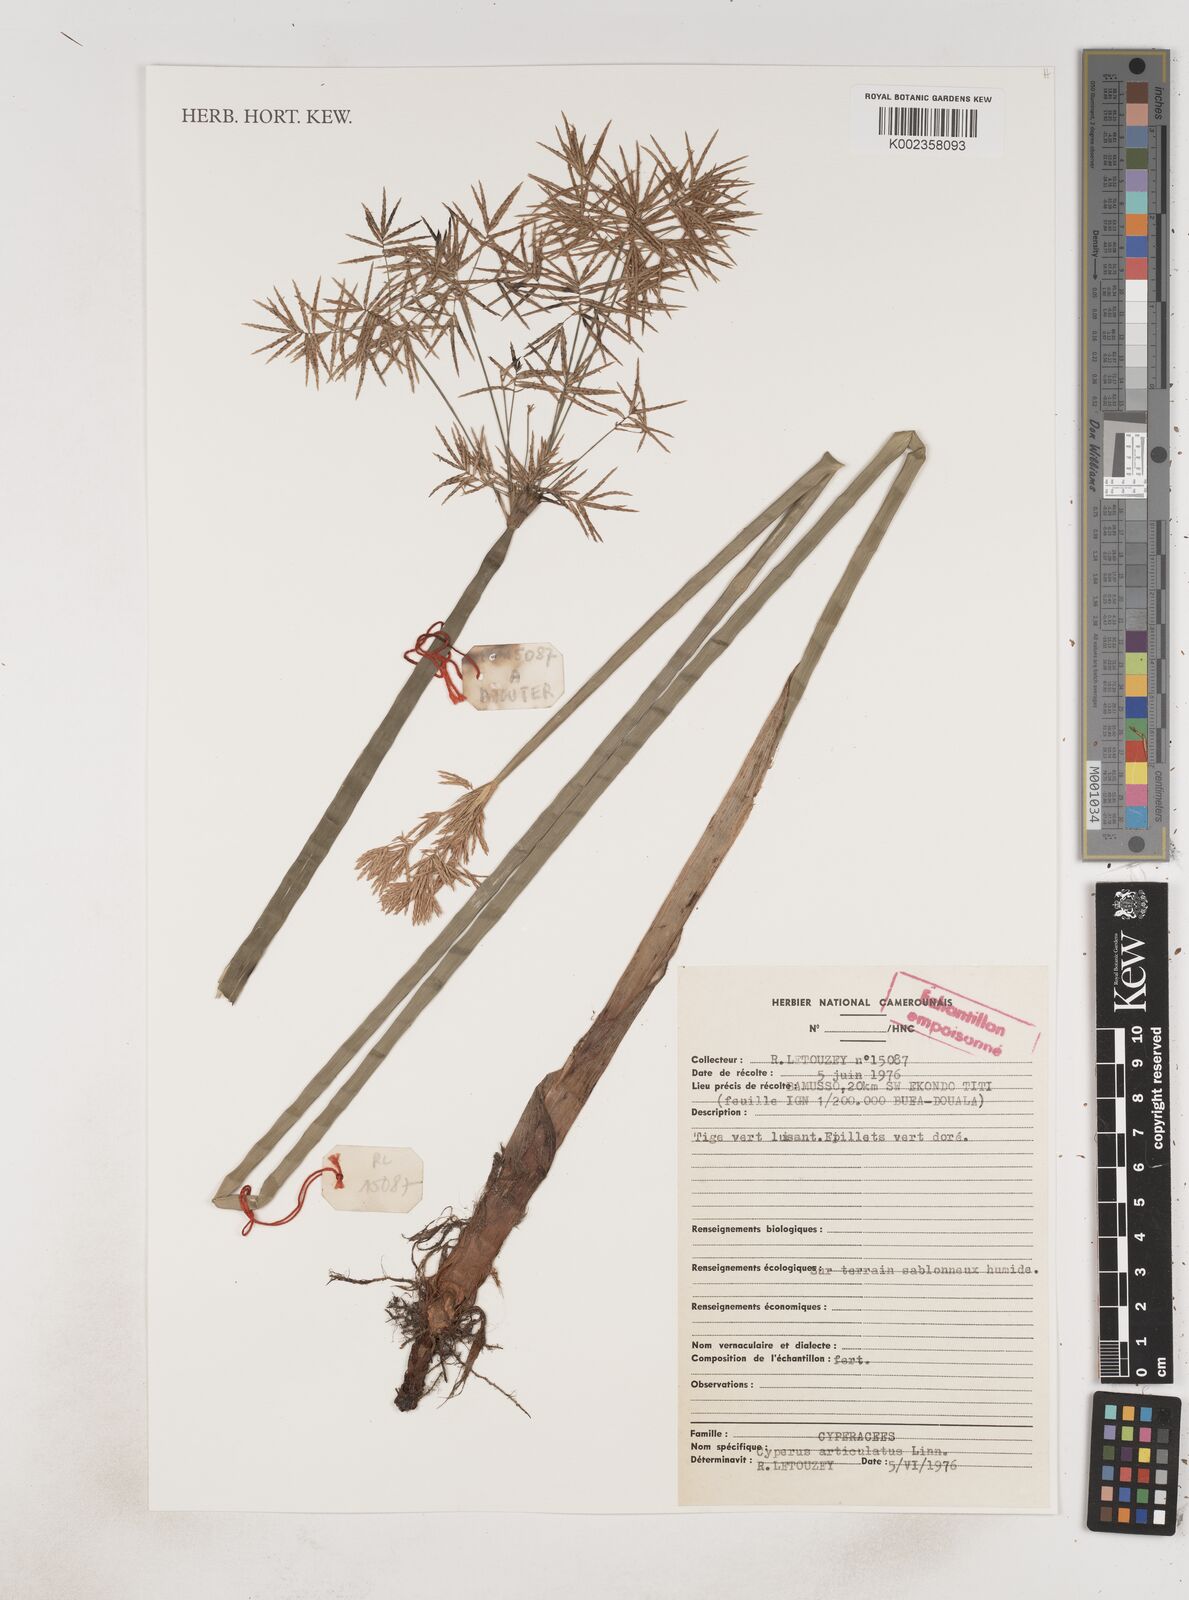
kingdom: Plantae
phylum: Tracheophyta
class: Liliopsida
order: Poales
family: Cyperaceae
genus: Cyperus
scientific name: Cyperus articulatus
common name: Jointed flatsedge
